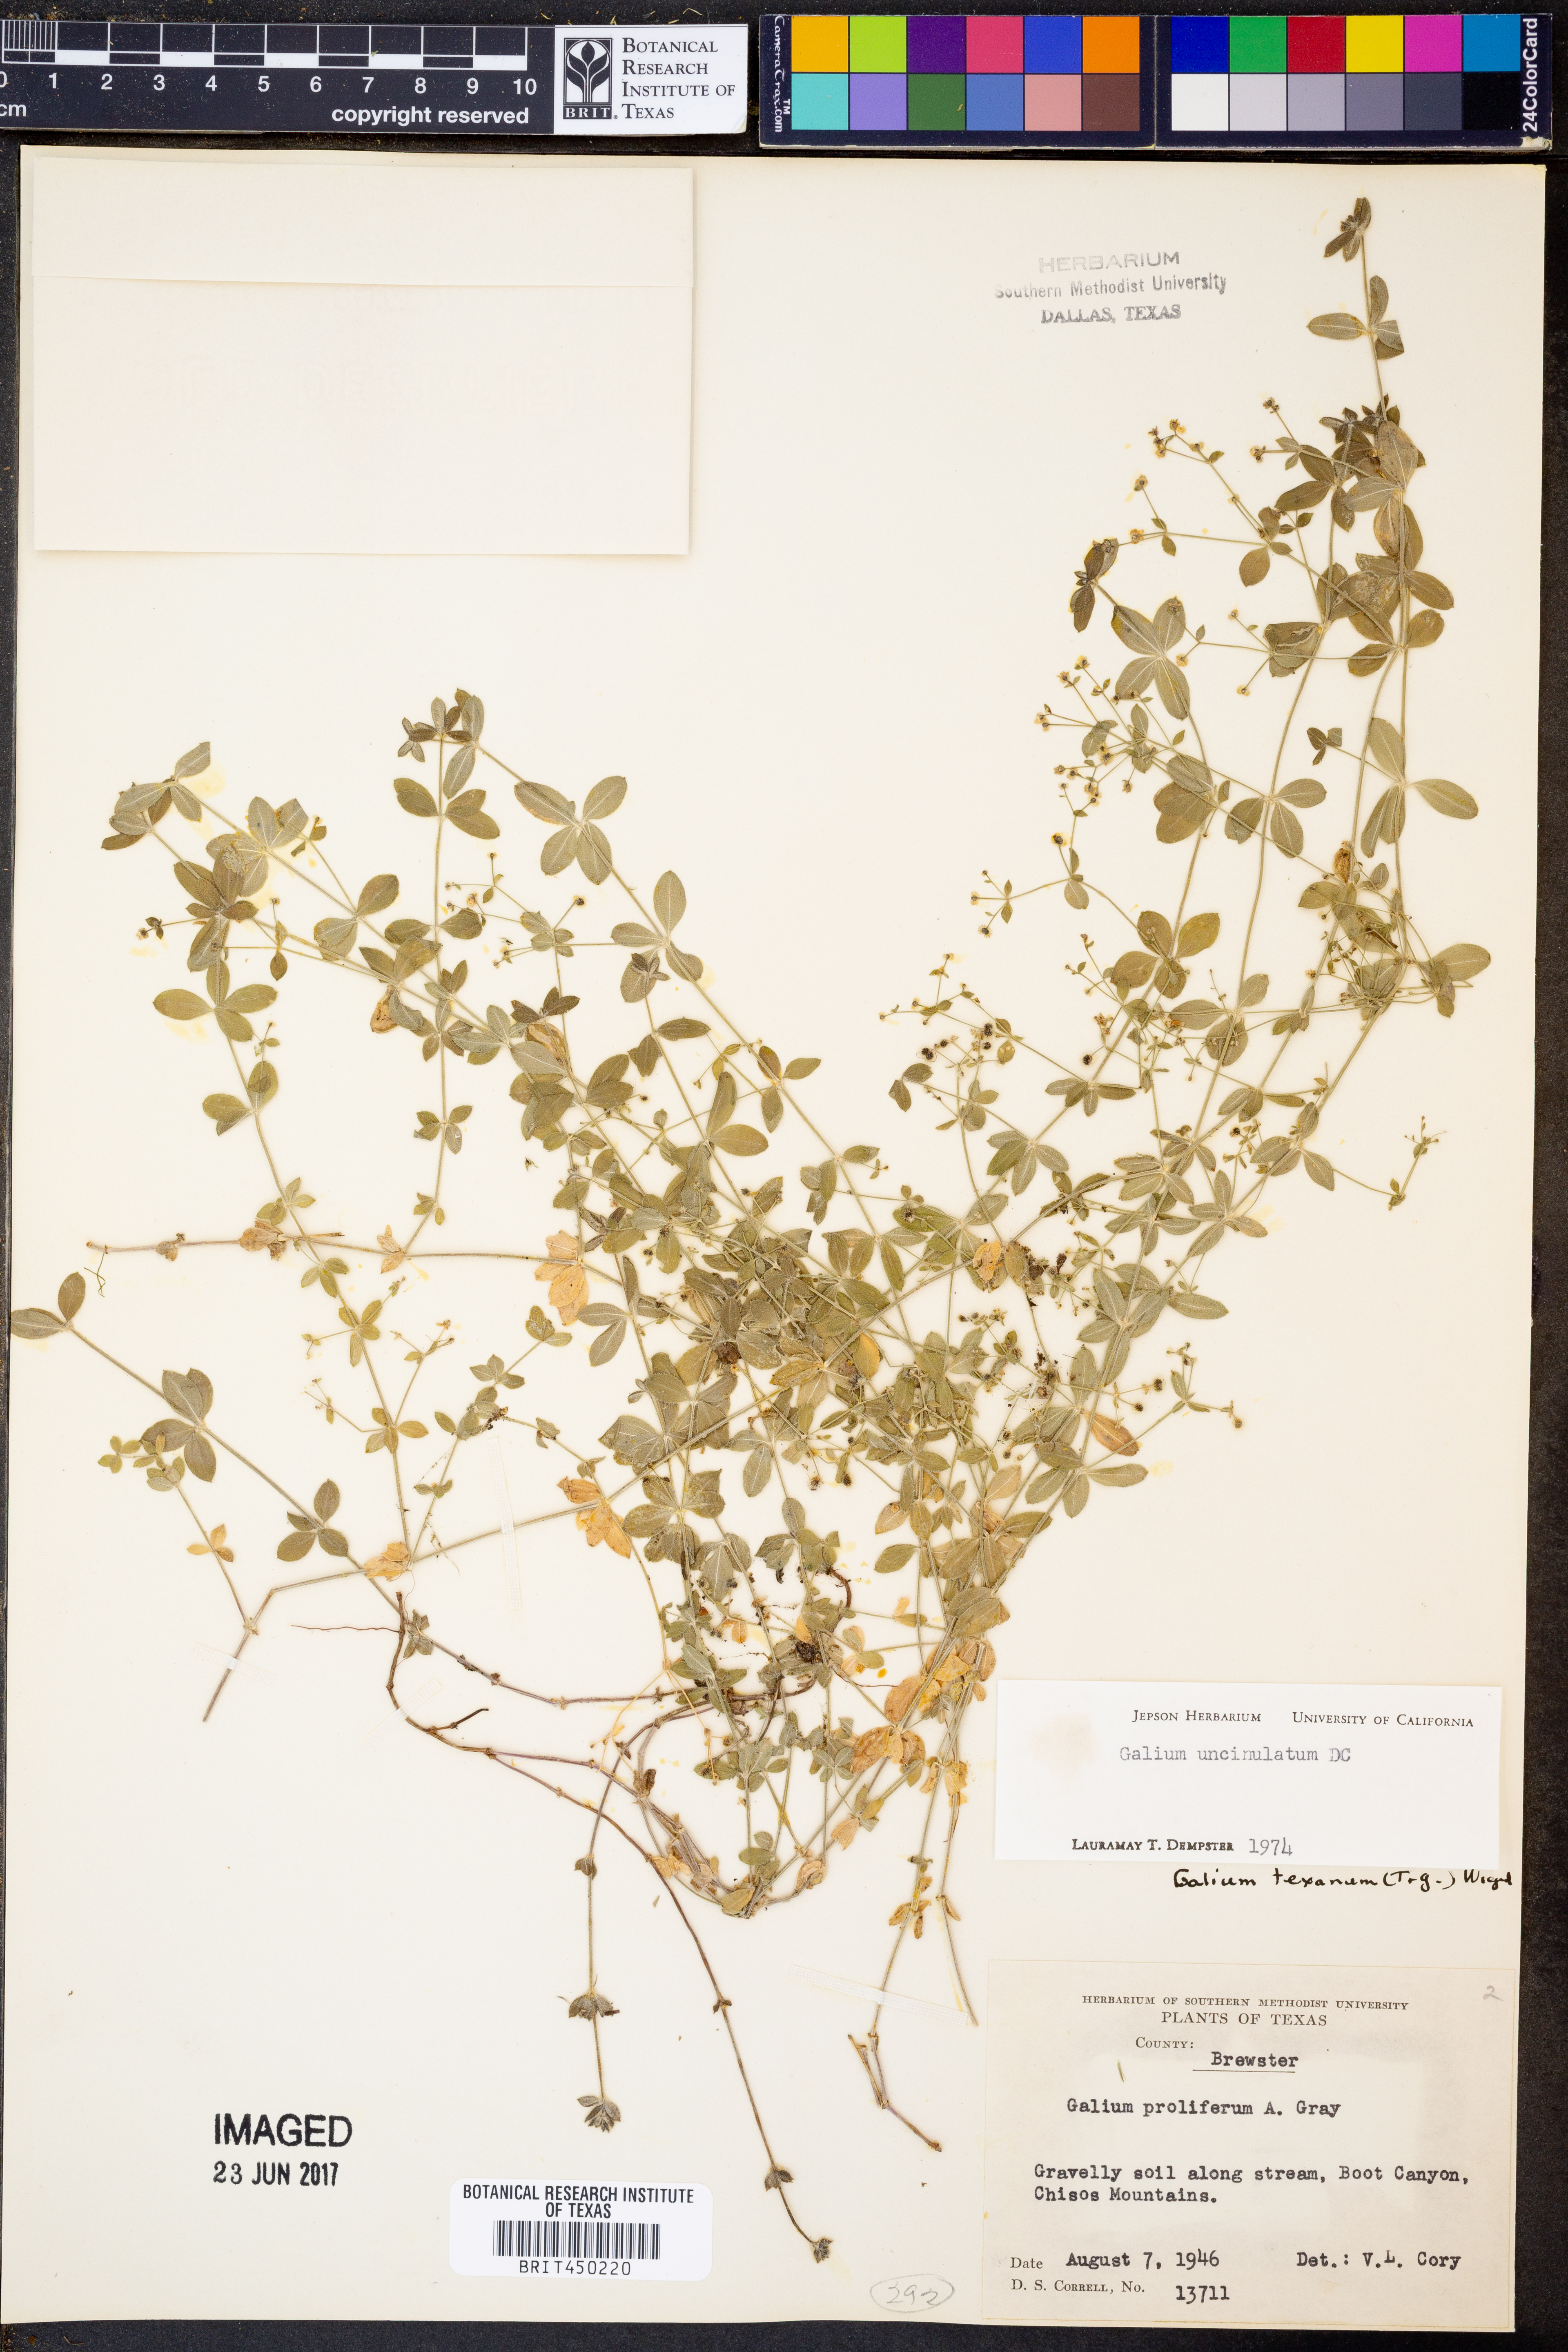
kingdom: Plantae
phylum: Tracheophyta
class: Magnoliopsida
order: Gentianales
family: Rubiaceae
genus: Galium
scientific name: Galium uncinulatum
